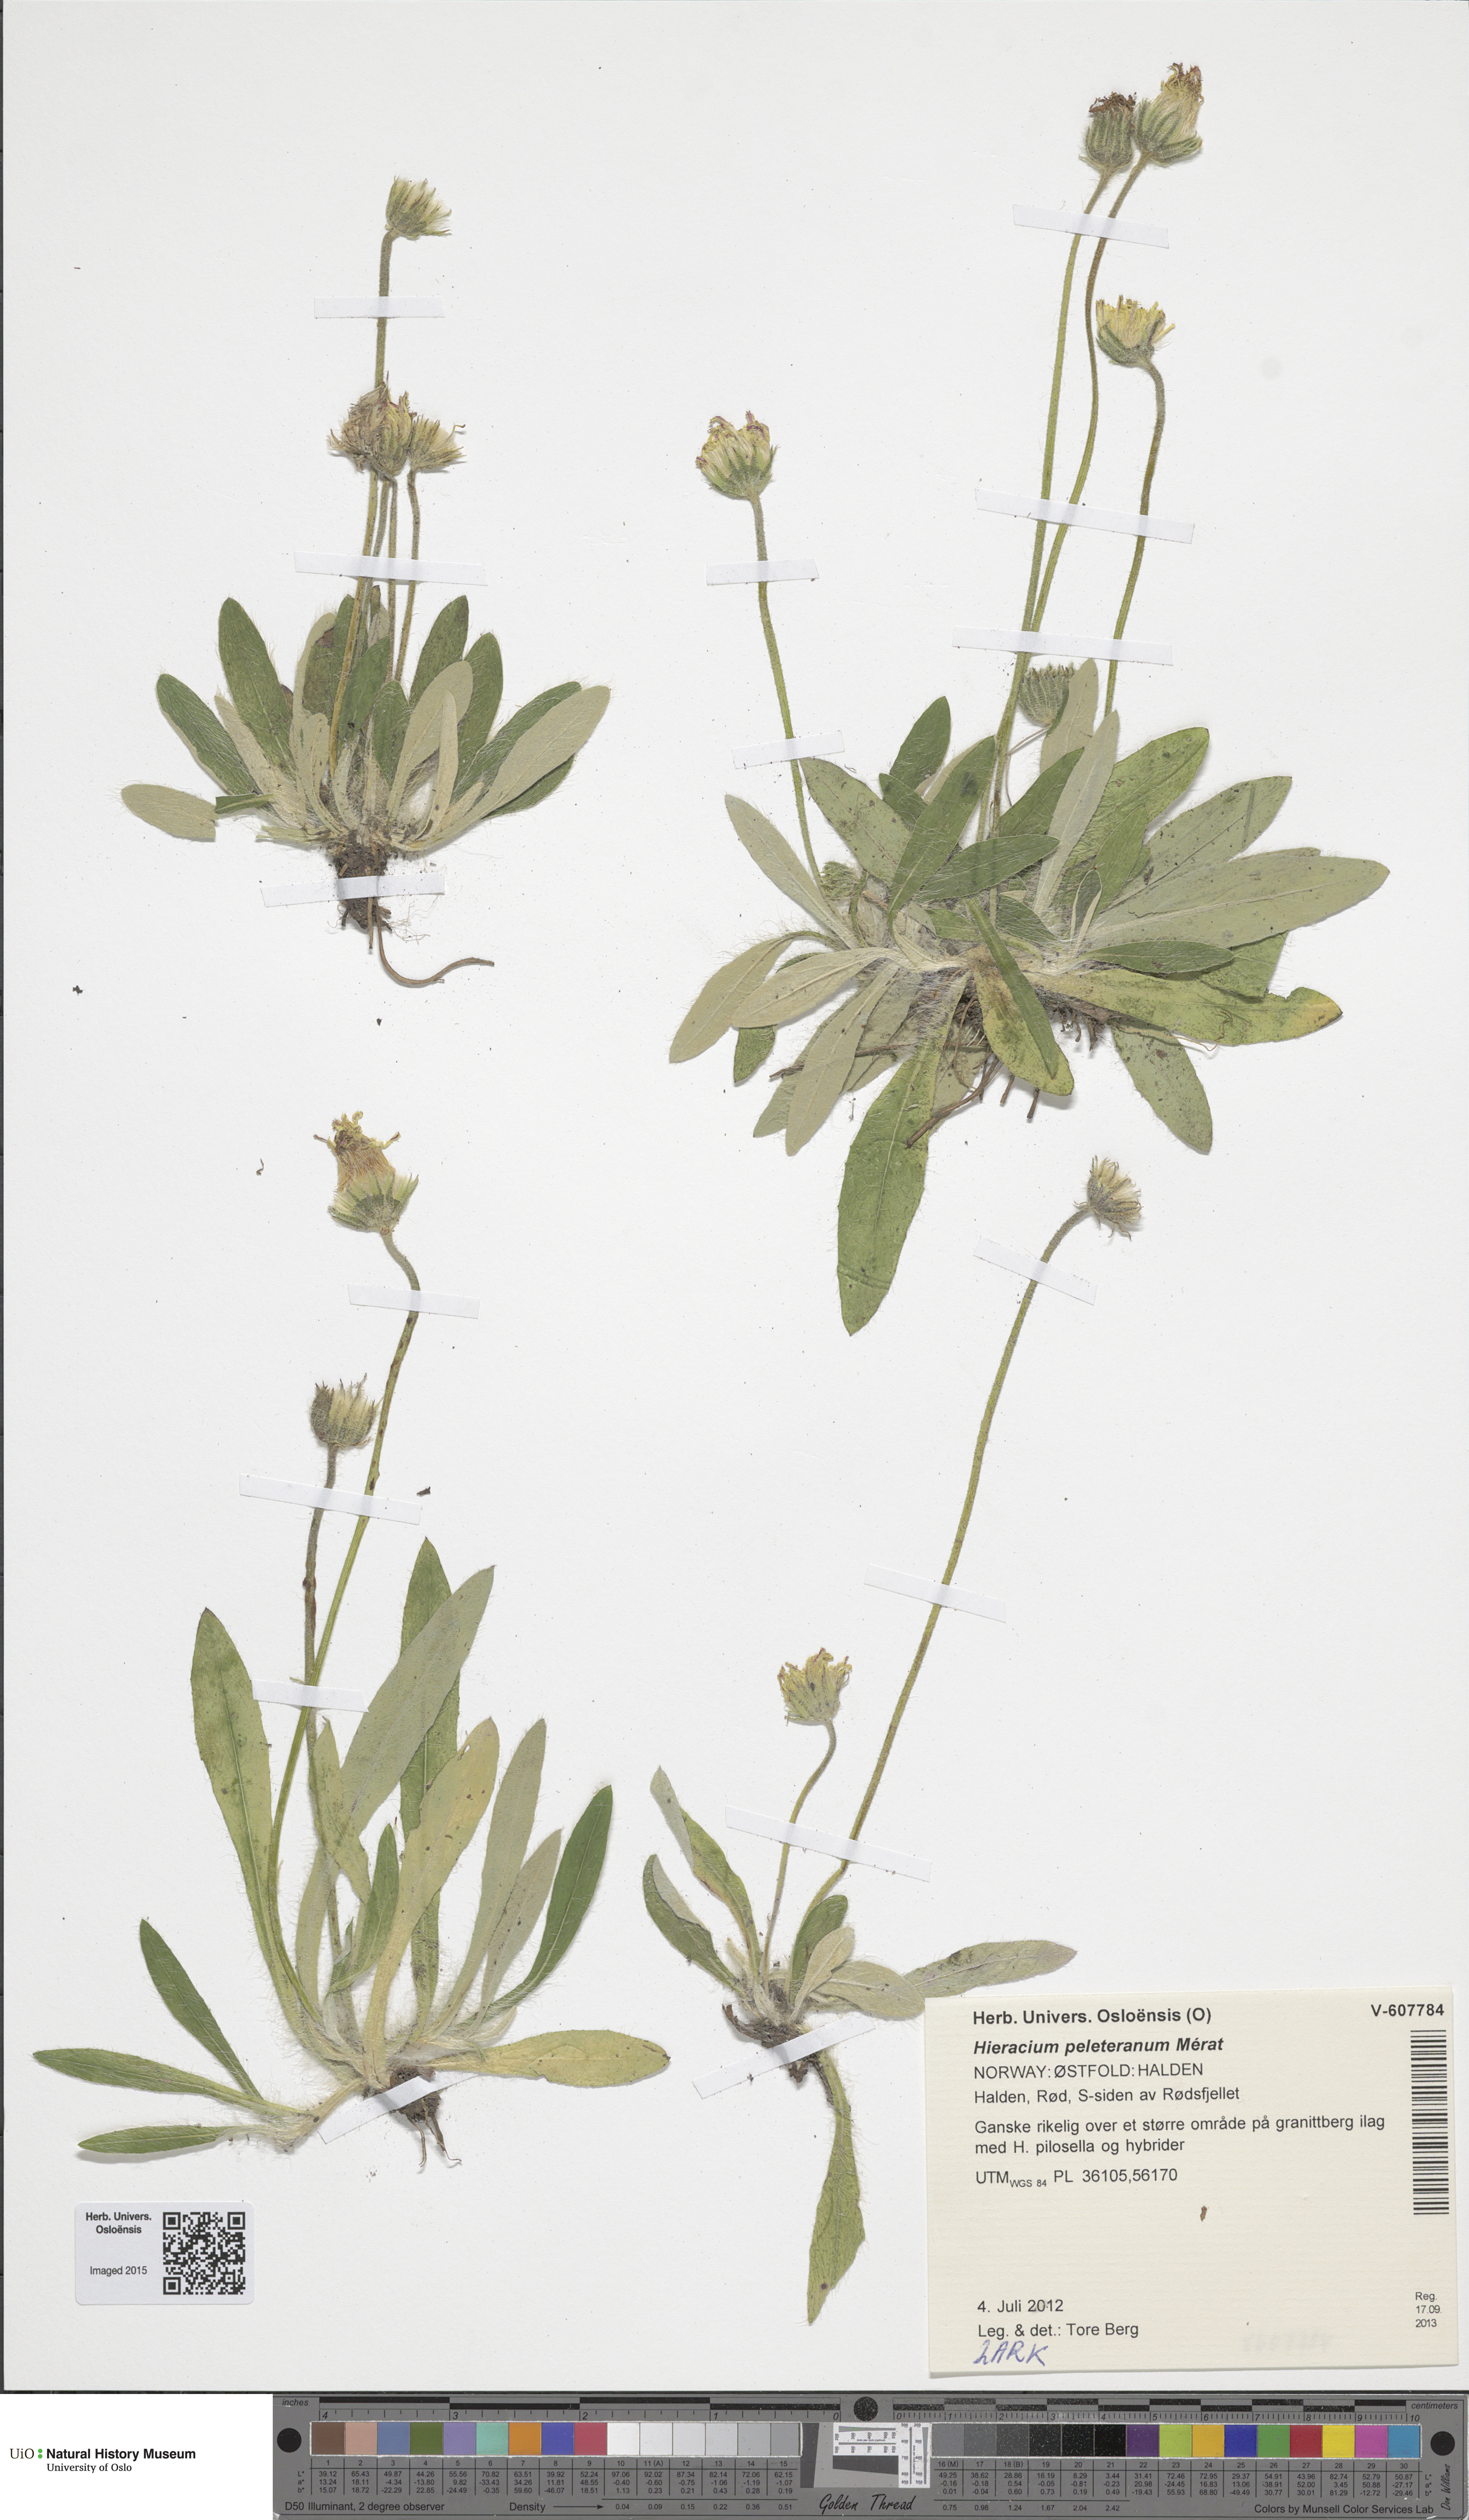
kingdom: Plantae
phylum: Tracheophyta
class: Magnoliopsida
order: Asterales
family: Asteraceae
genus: Pilosella
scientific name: Pilosella peleteriana
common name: Shaggy mouse-ear-hawkweed
